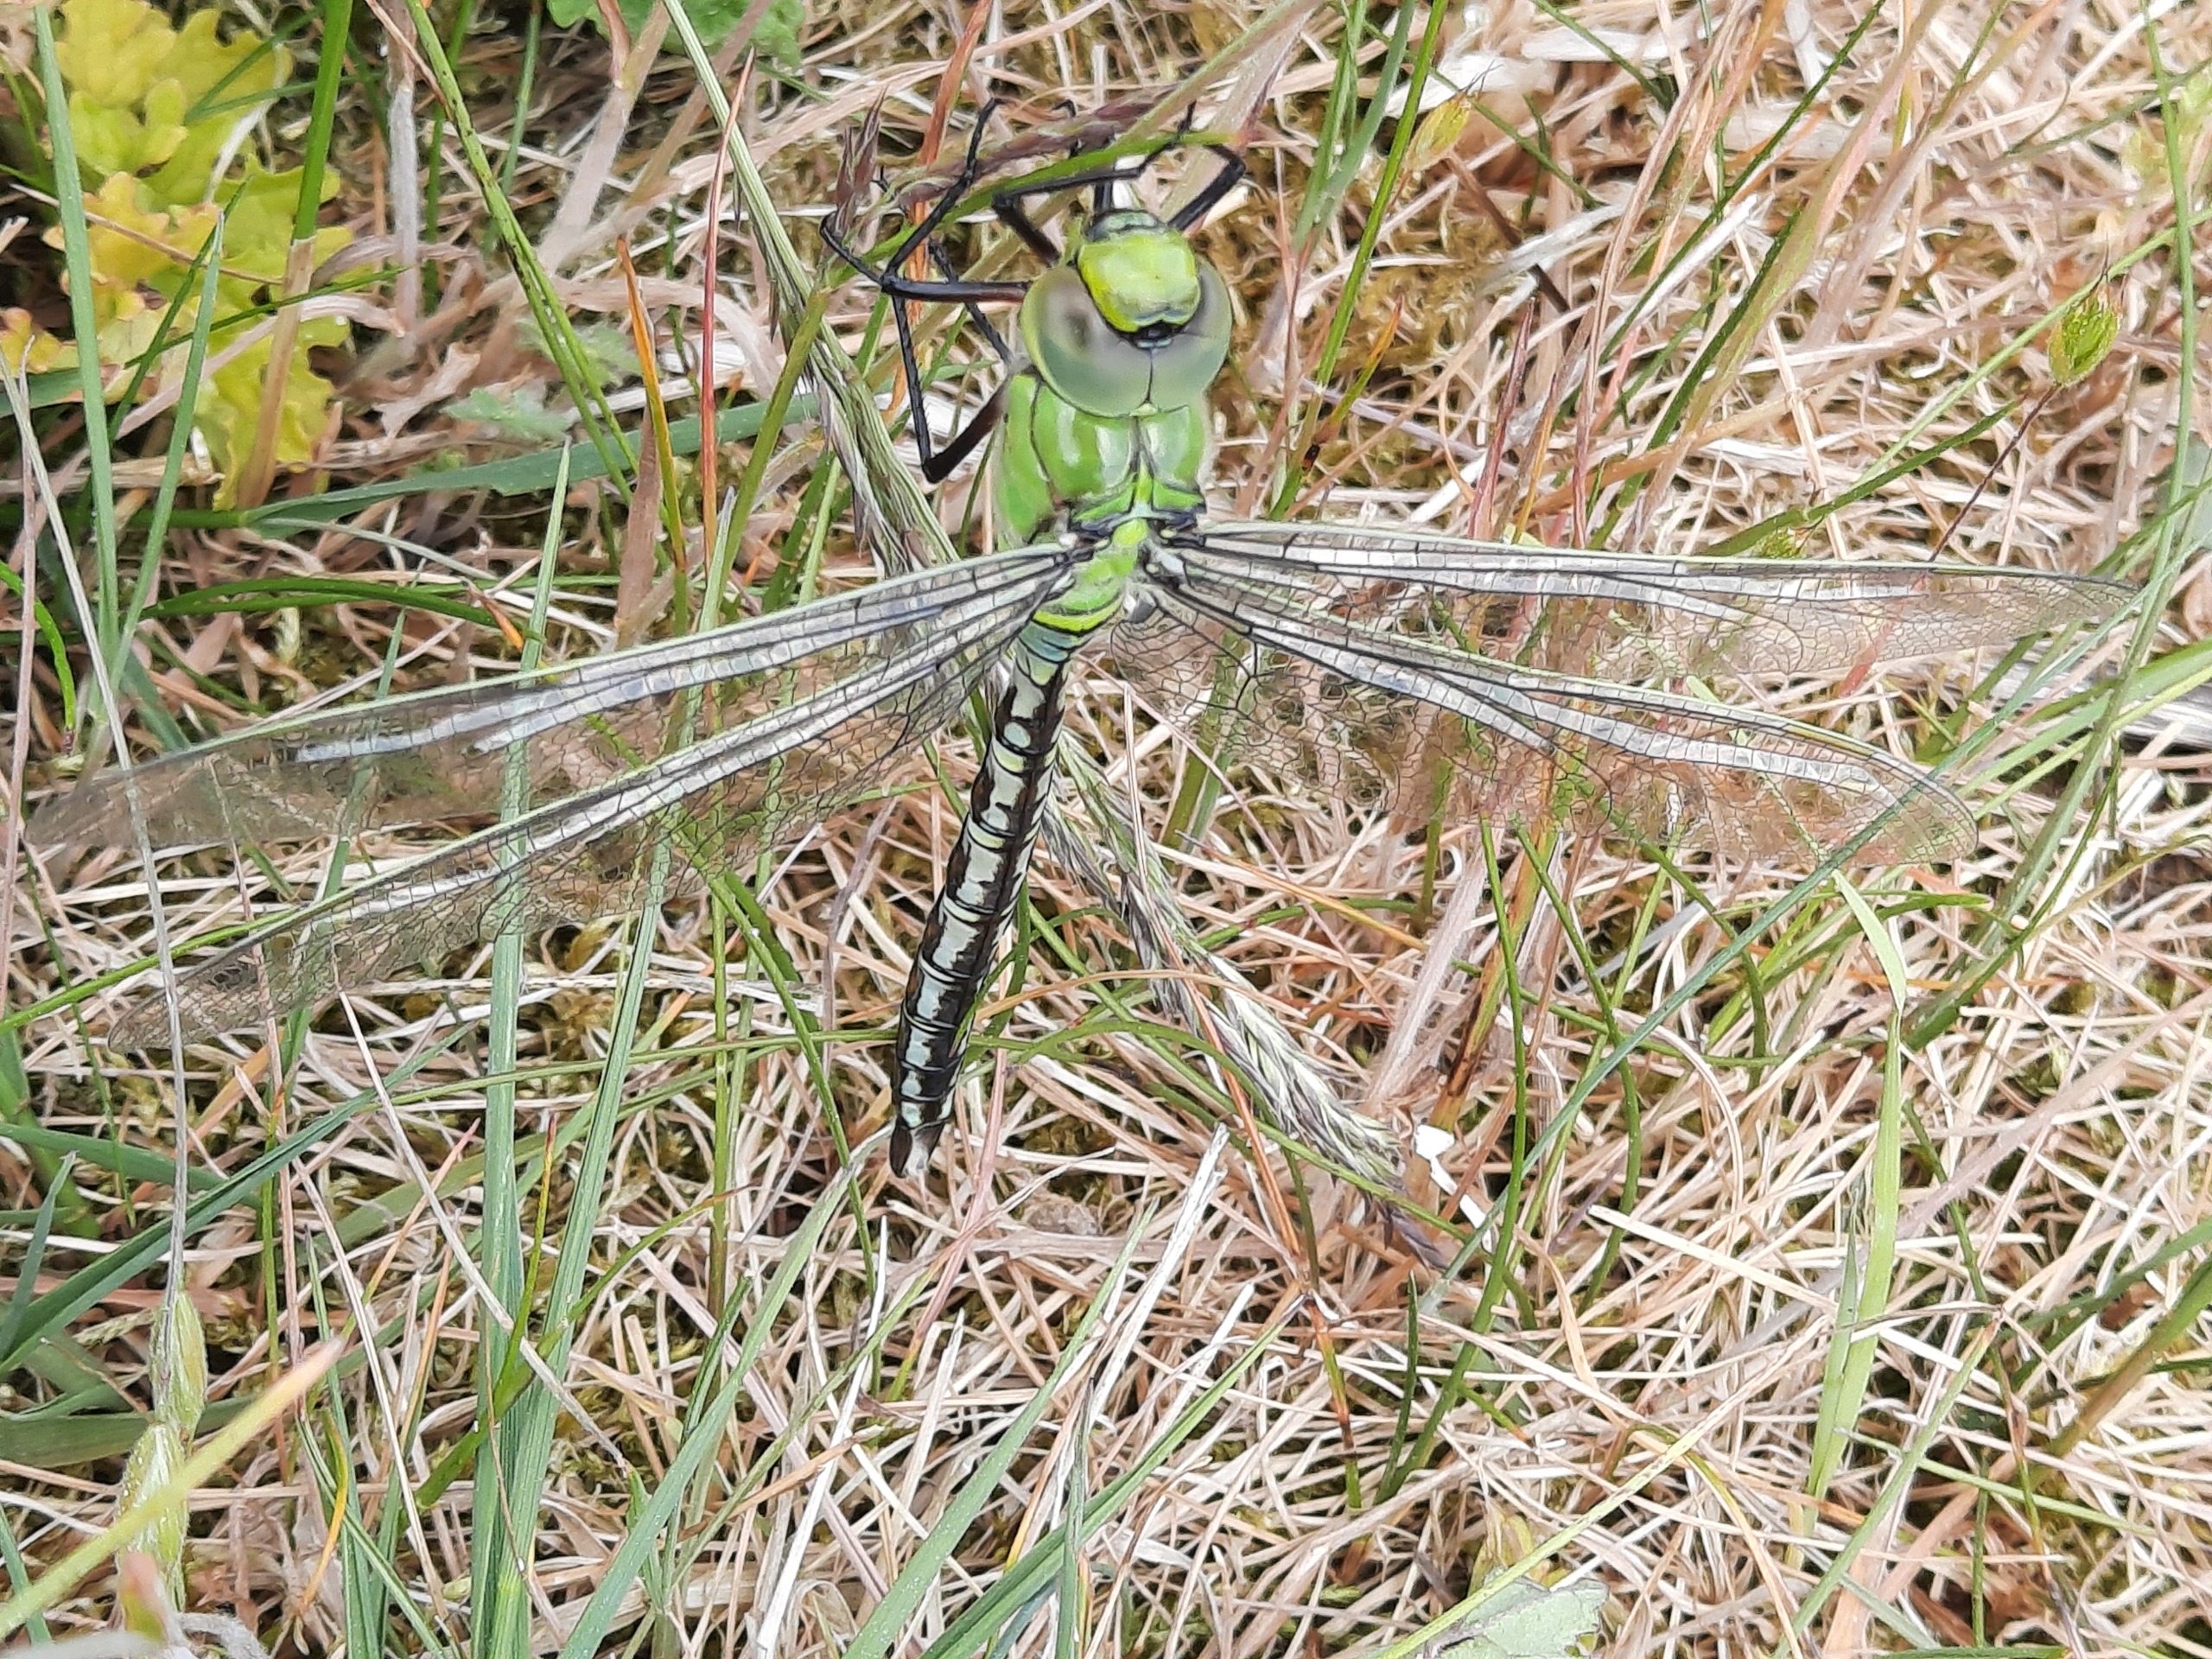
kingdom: Animalia
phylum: Arthropoda
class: Insecta
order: Odonata
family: Aeshnidae
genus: Anax
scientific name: Anax imperator
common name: Stor kejserguldsmed
